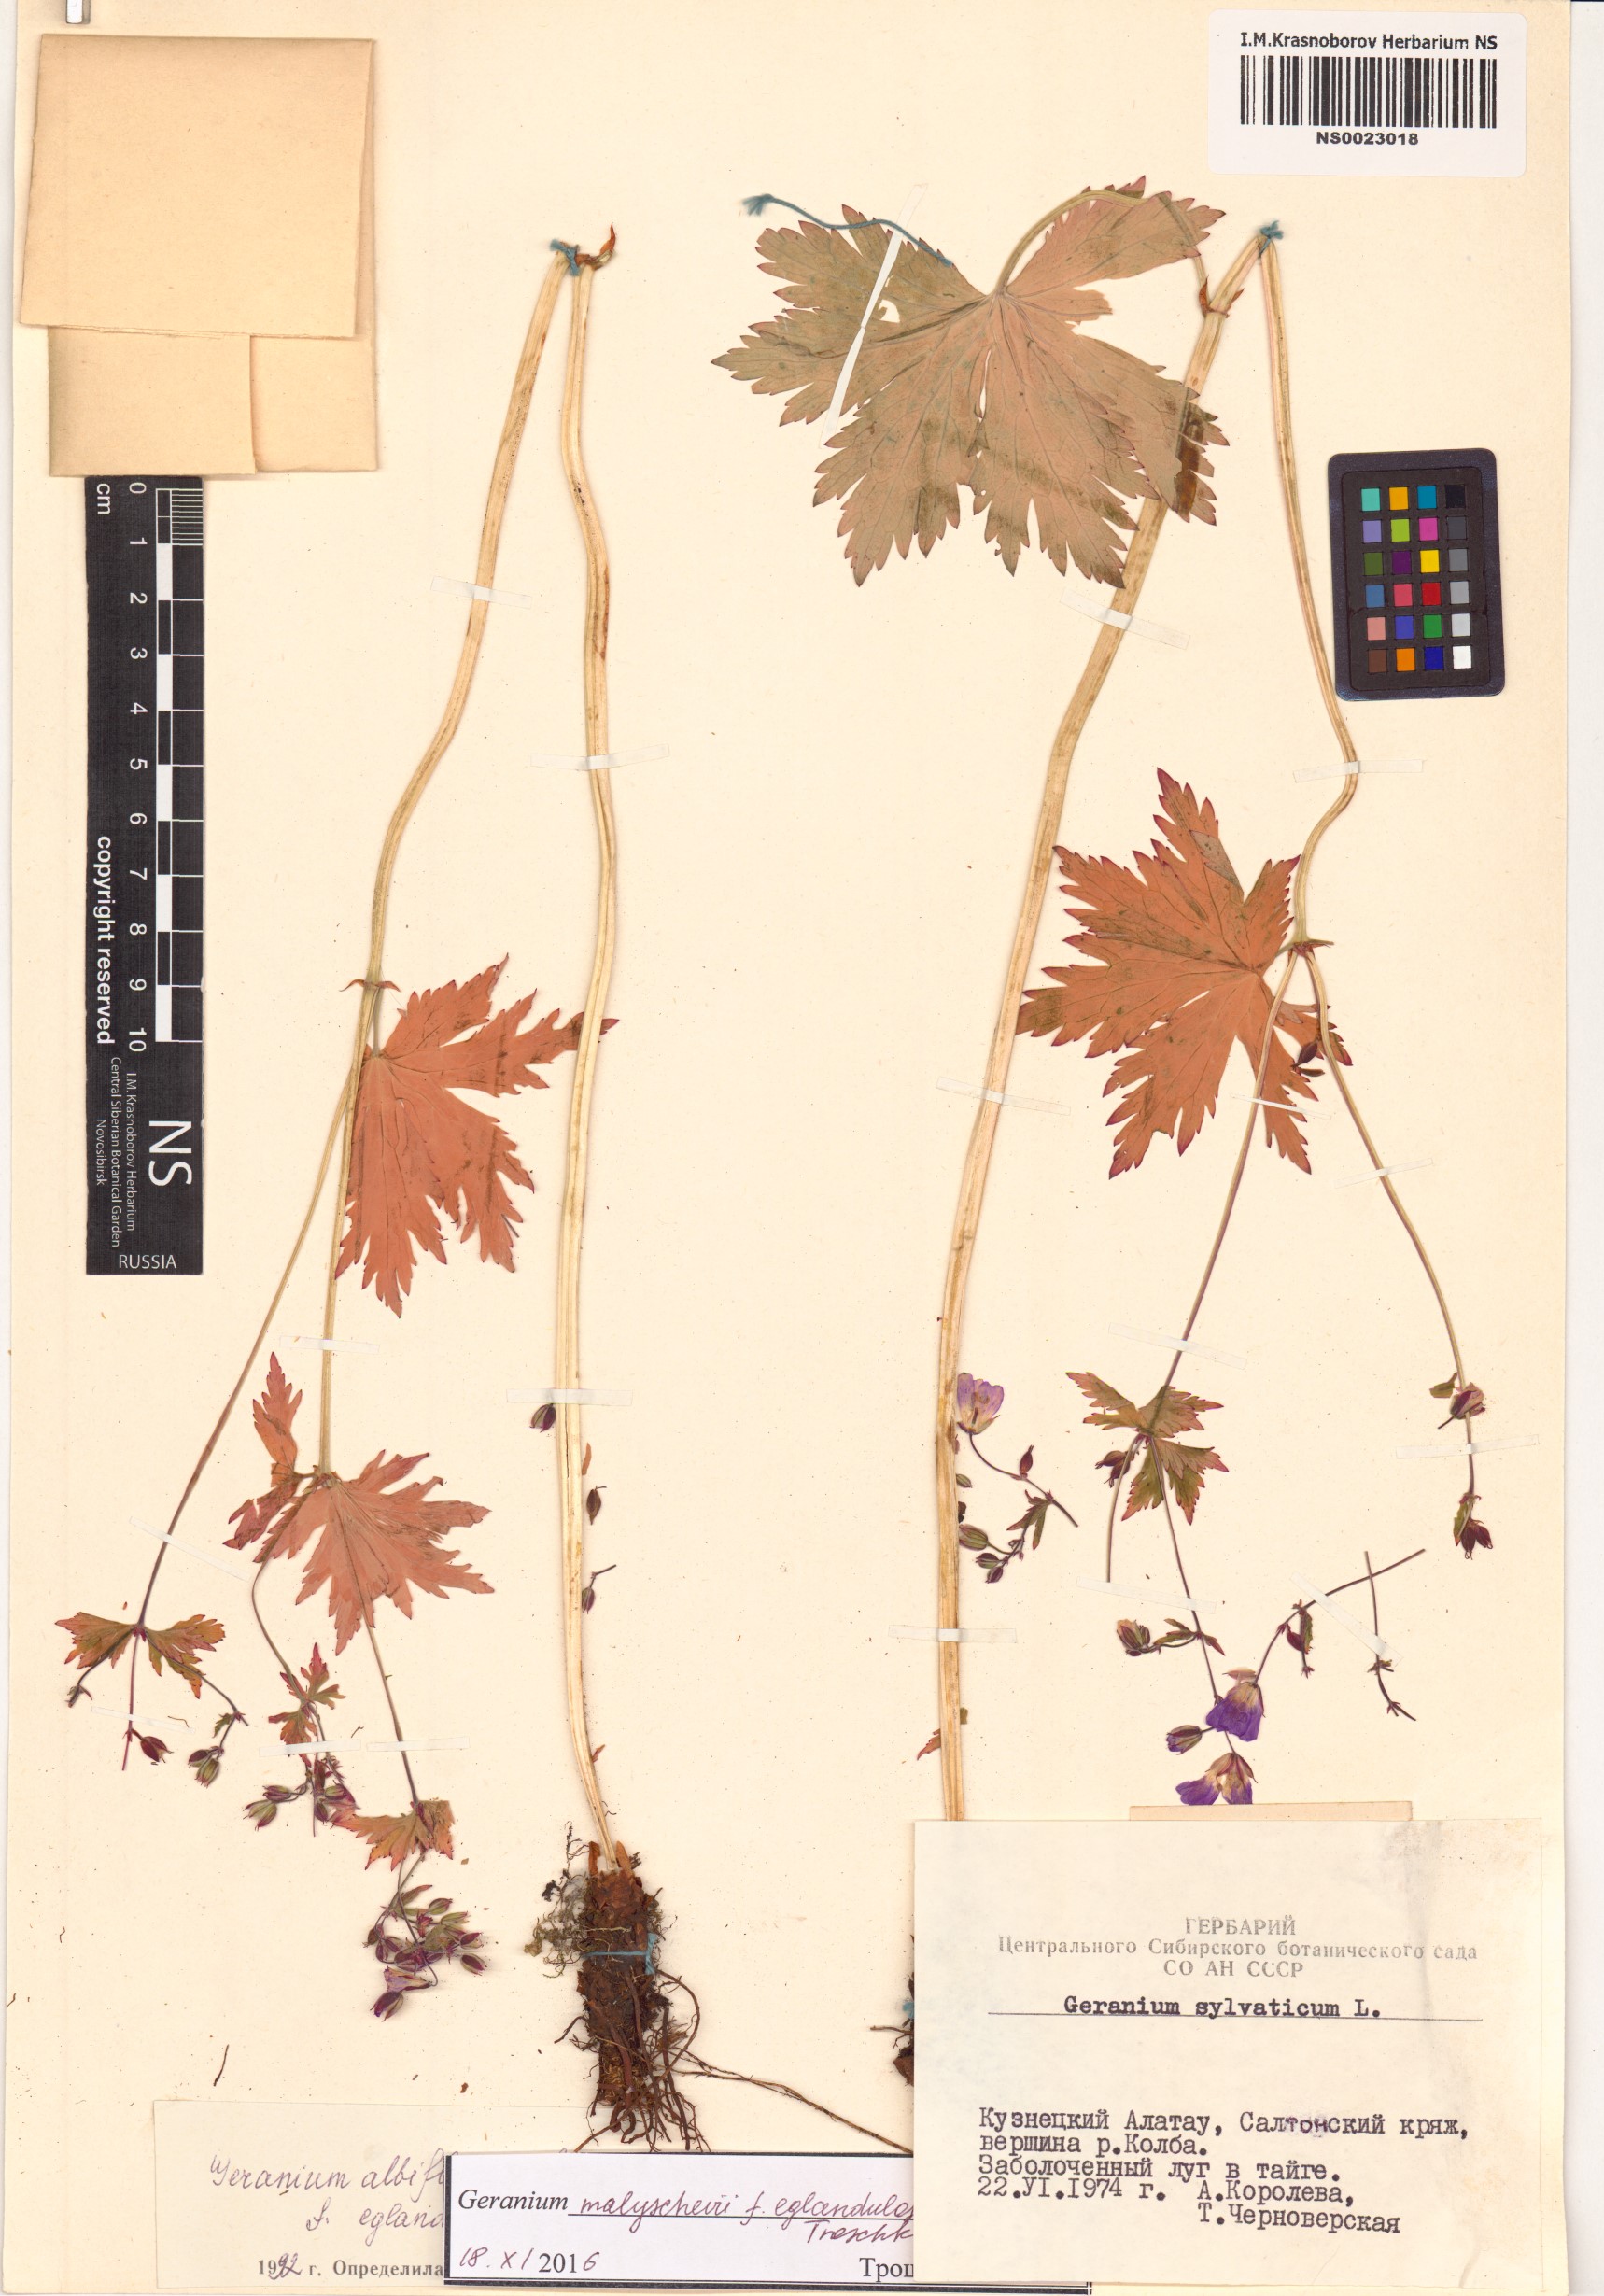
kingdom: Plantae
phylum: Tracheophyta
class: Magnoliopsida
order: Geraniales
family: Geraniaceae
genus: Geranium
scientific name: Geranium malyschevii
